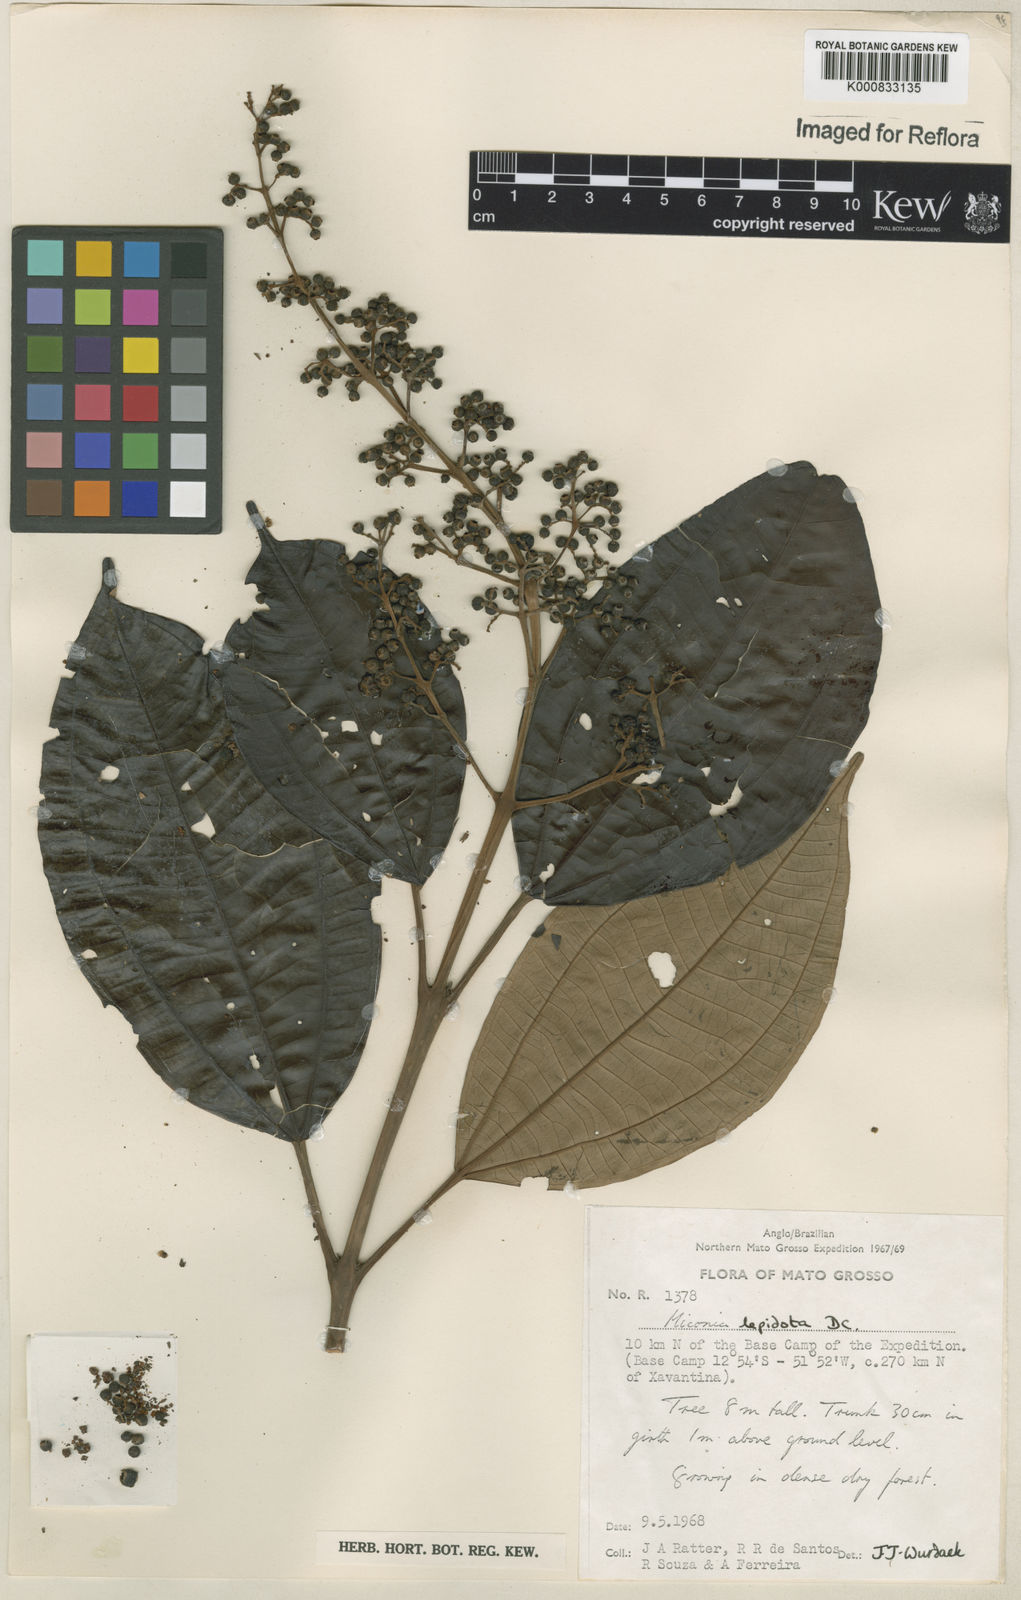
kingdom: Plantae
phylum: Tracheophyta
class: Magnoliopsida
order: Myrtales
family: Melastomataceae
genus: Miconia
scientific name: Miconia lepidota
